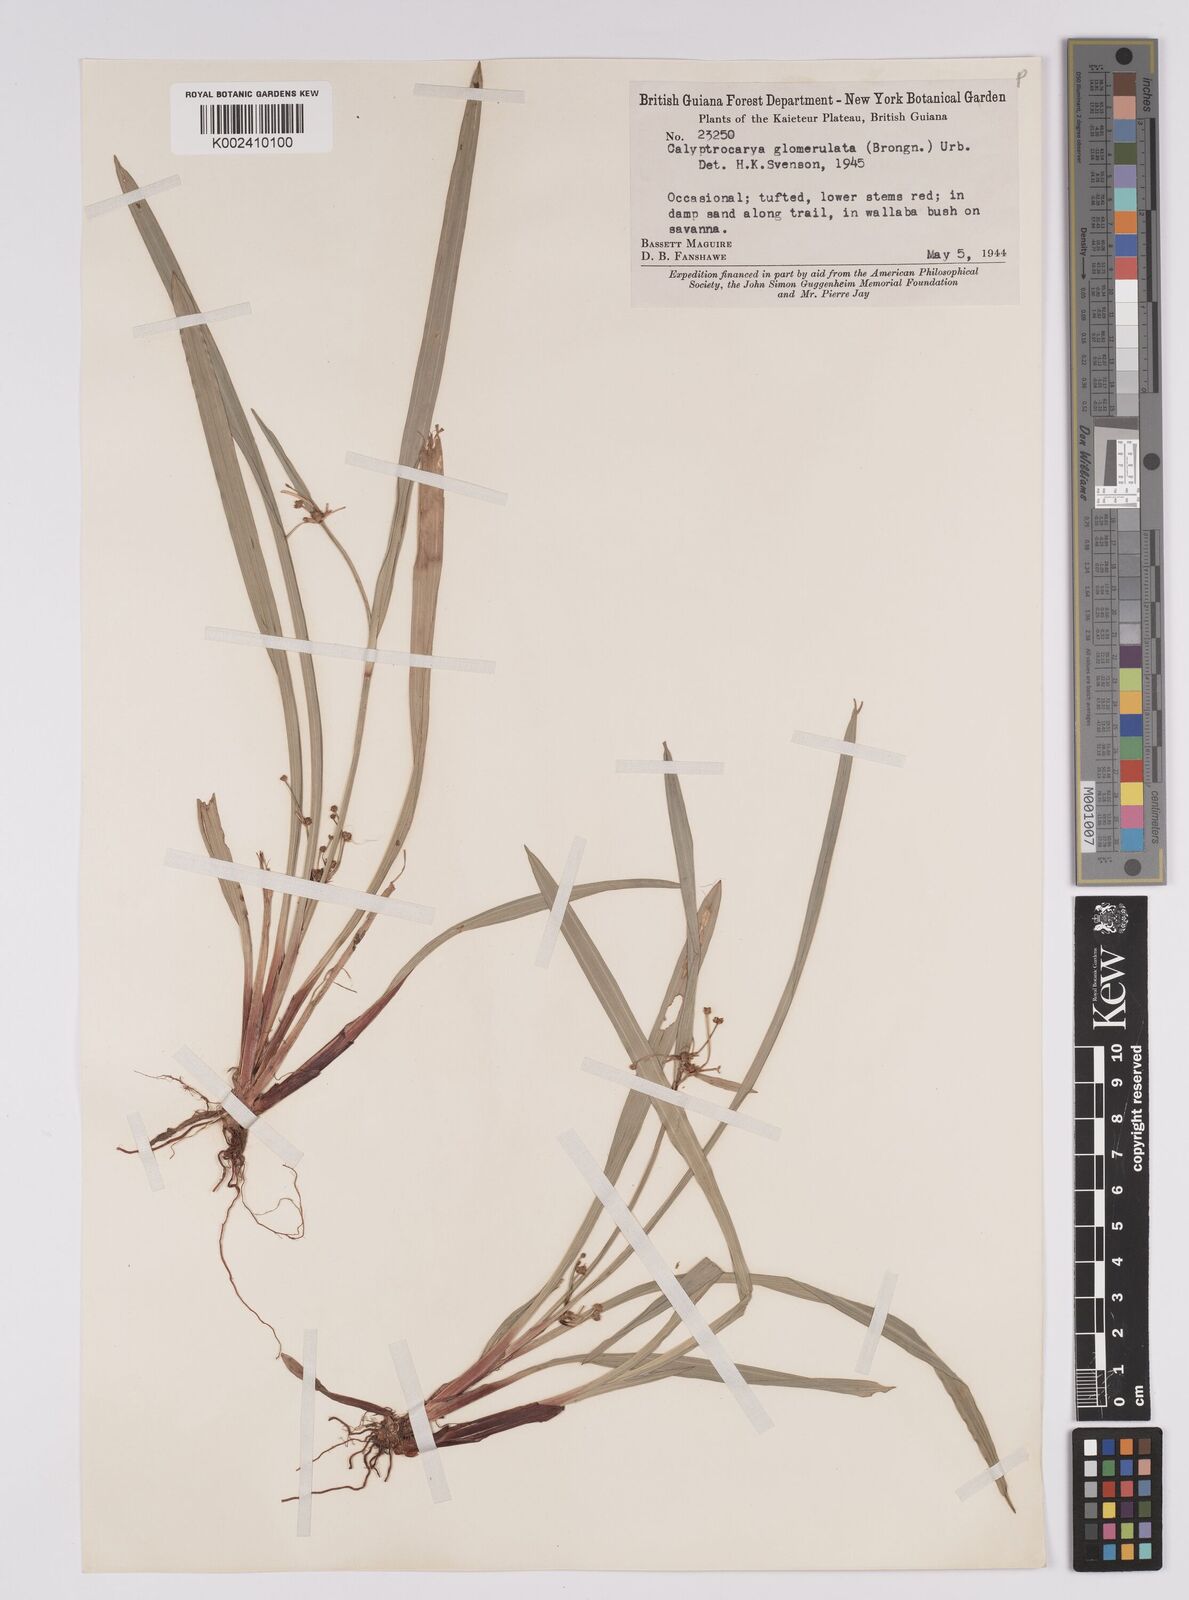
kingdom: Plantae
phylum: Tracheophyta
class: Liliopsida
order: Poales
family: Cyperaceae
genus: Calyptrocarya
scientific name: Calyptrocarya glomerulata
